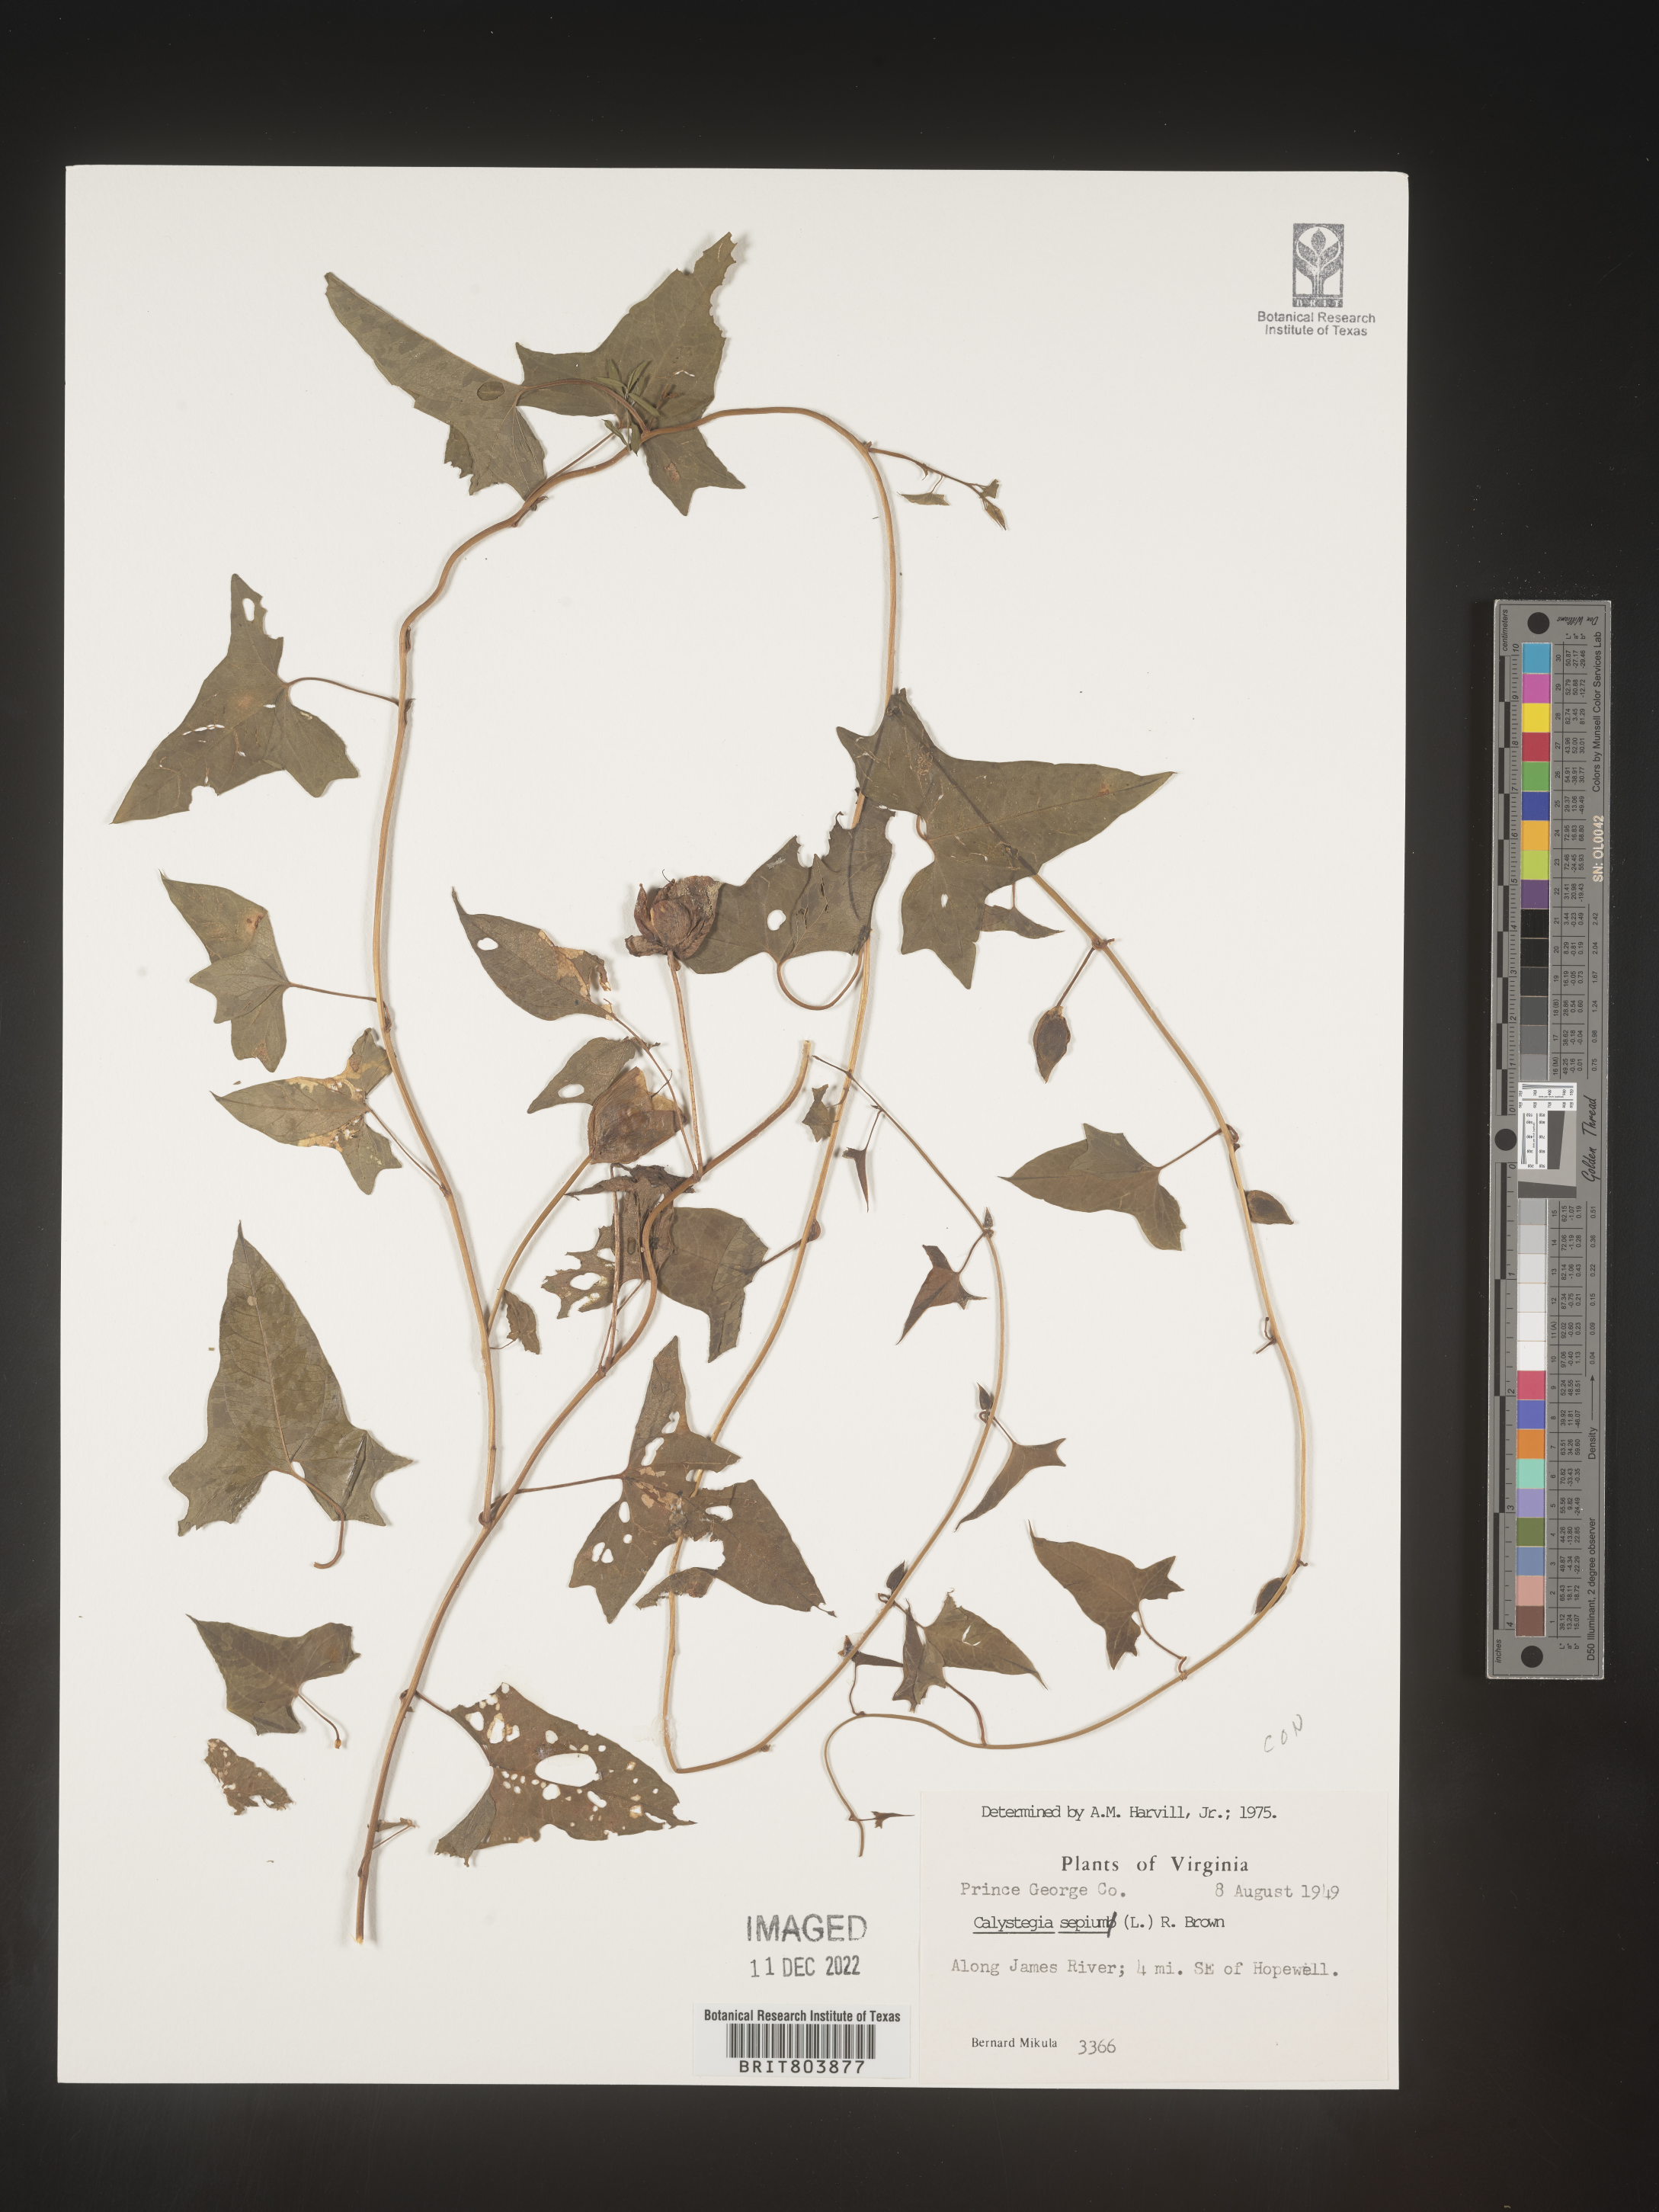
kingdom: Plantae
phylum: Tracheophyta
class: Magnoliopsida
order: Solanales
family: Convolvulaceae
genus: Calystegia
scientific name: Calystegia sepium
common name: Hedge bindweed
